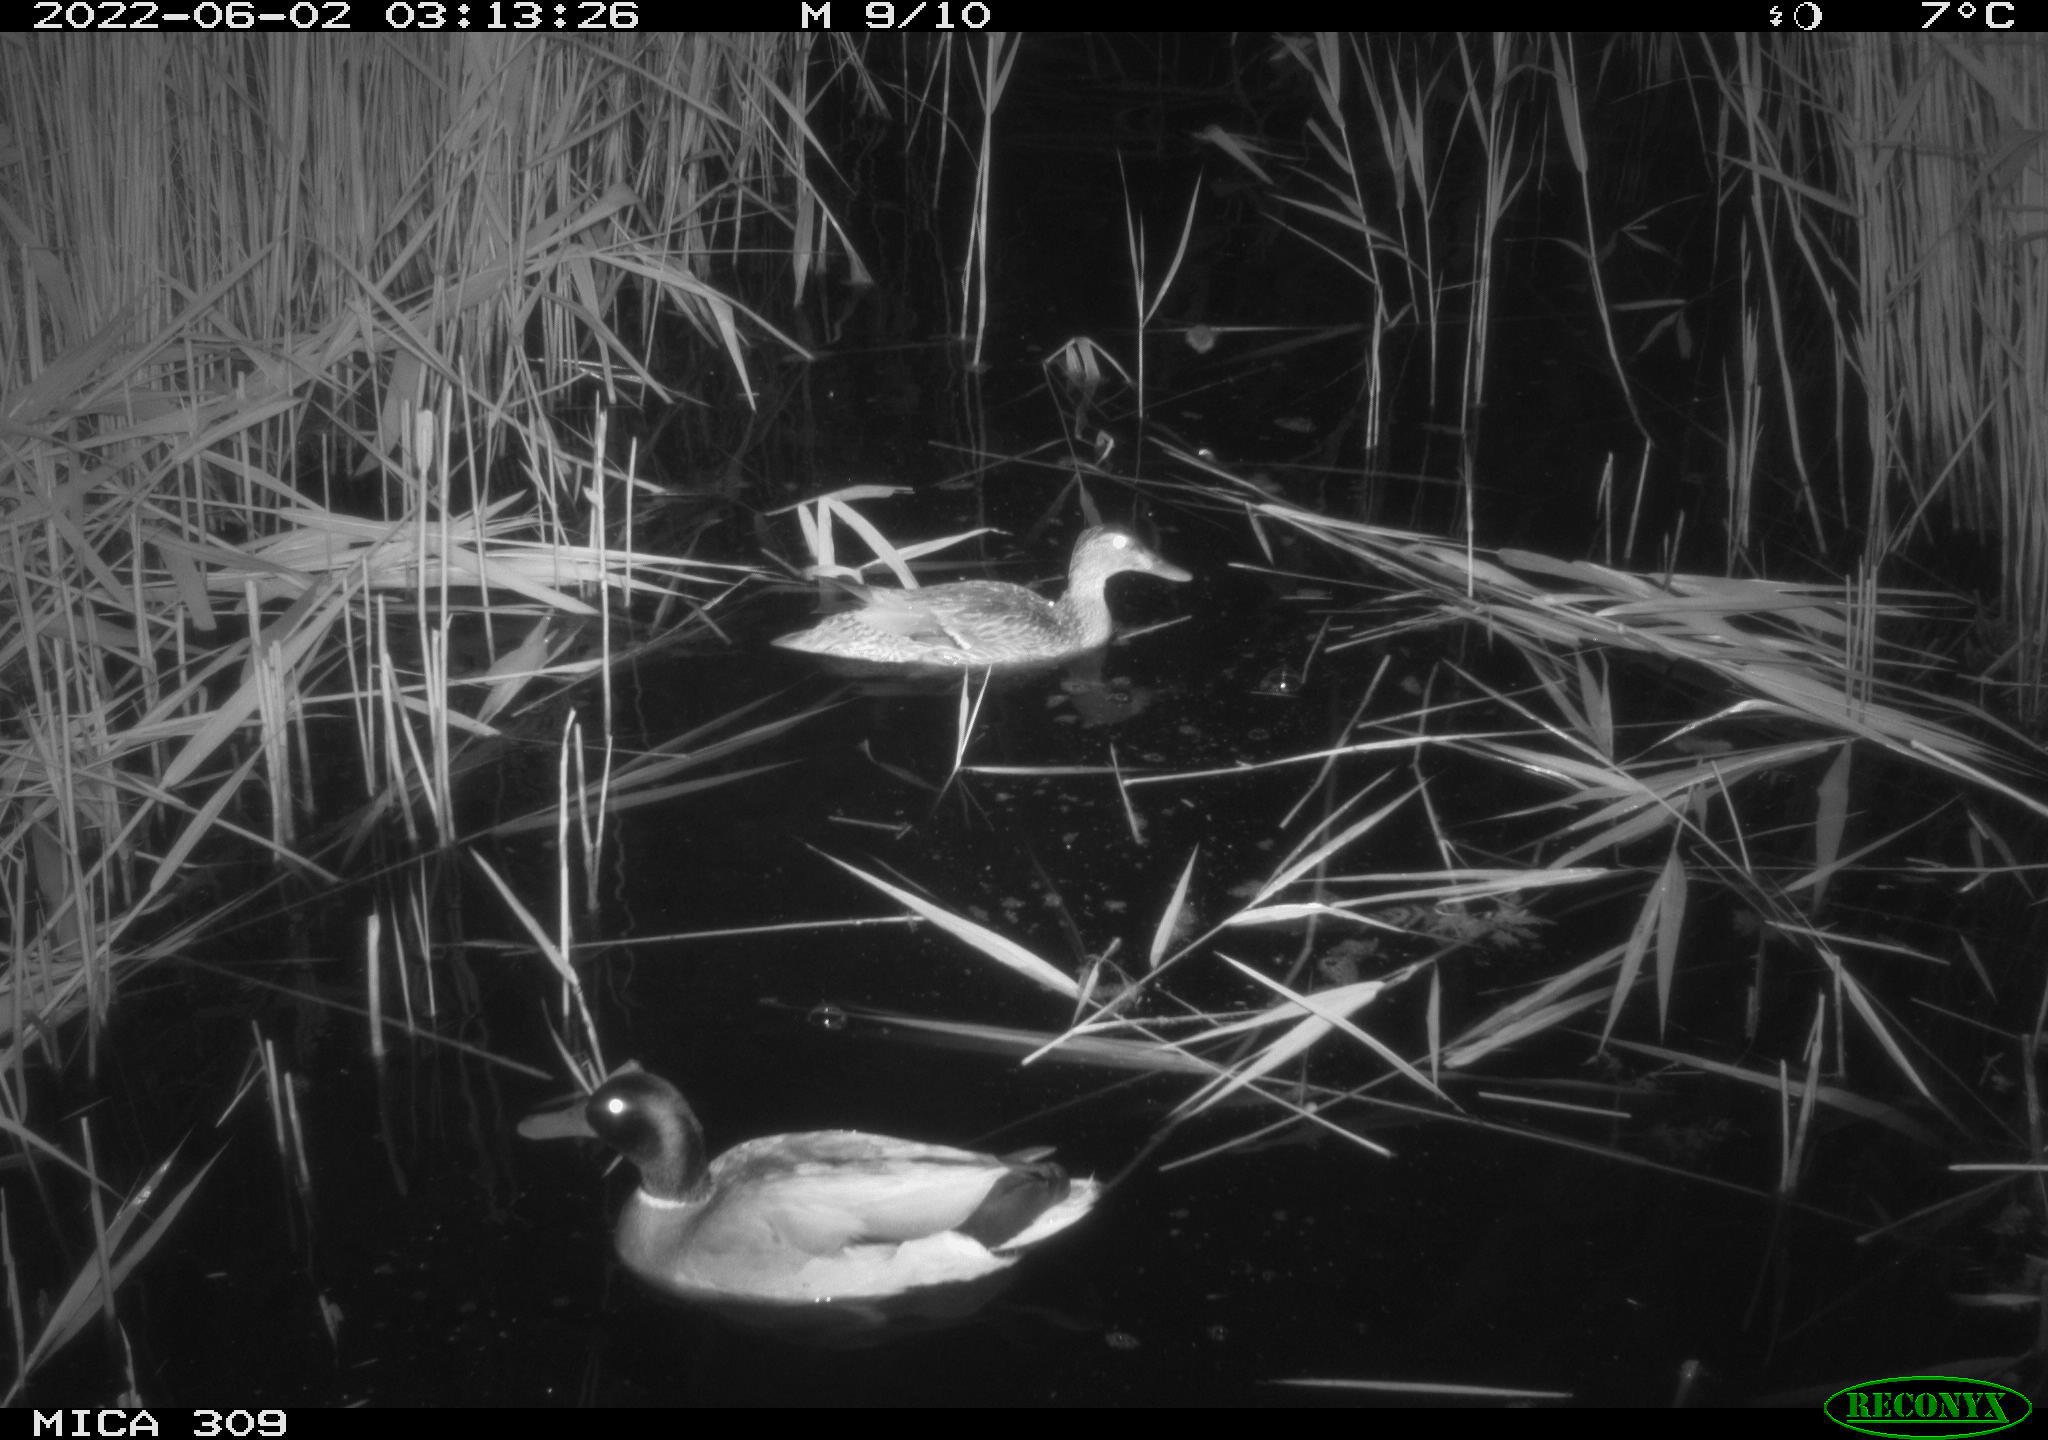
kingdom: Animalia
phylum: Chordata
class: Aves
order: Gruiformes
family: Rallidae
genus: Fulica
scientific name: Fulica atra
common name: Eurasian coot
